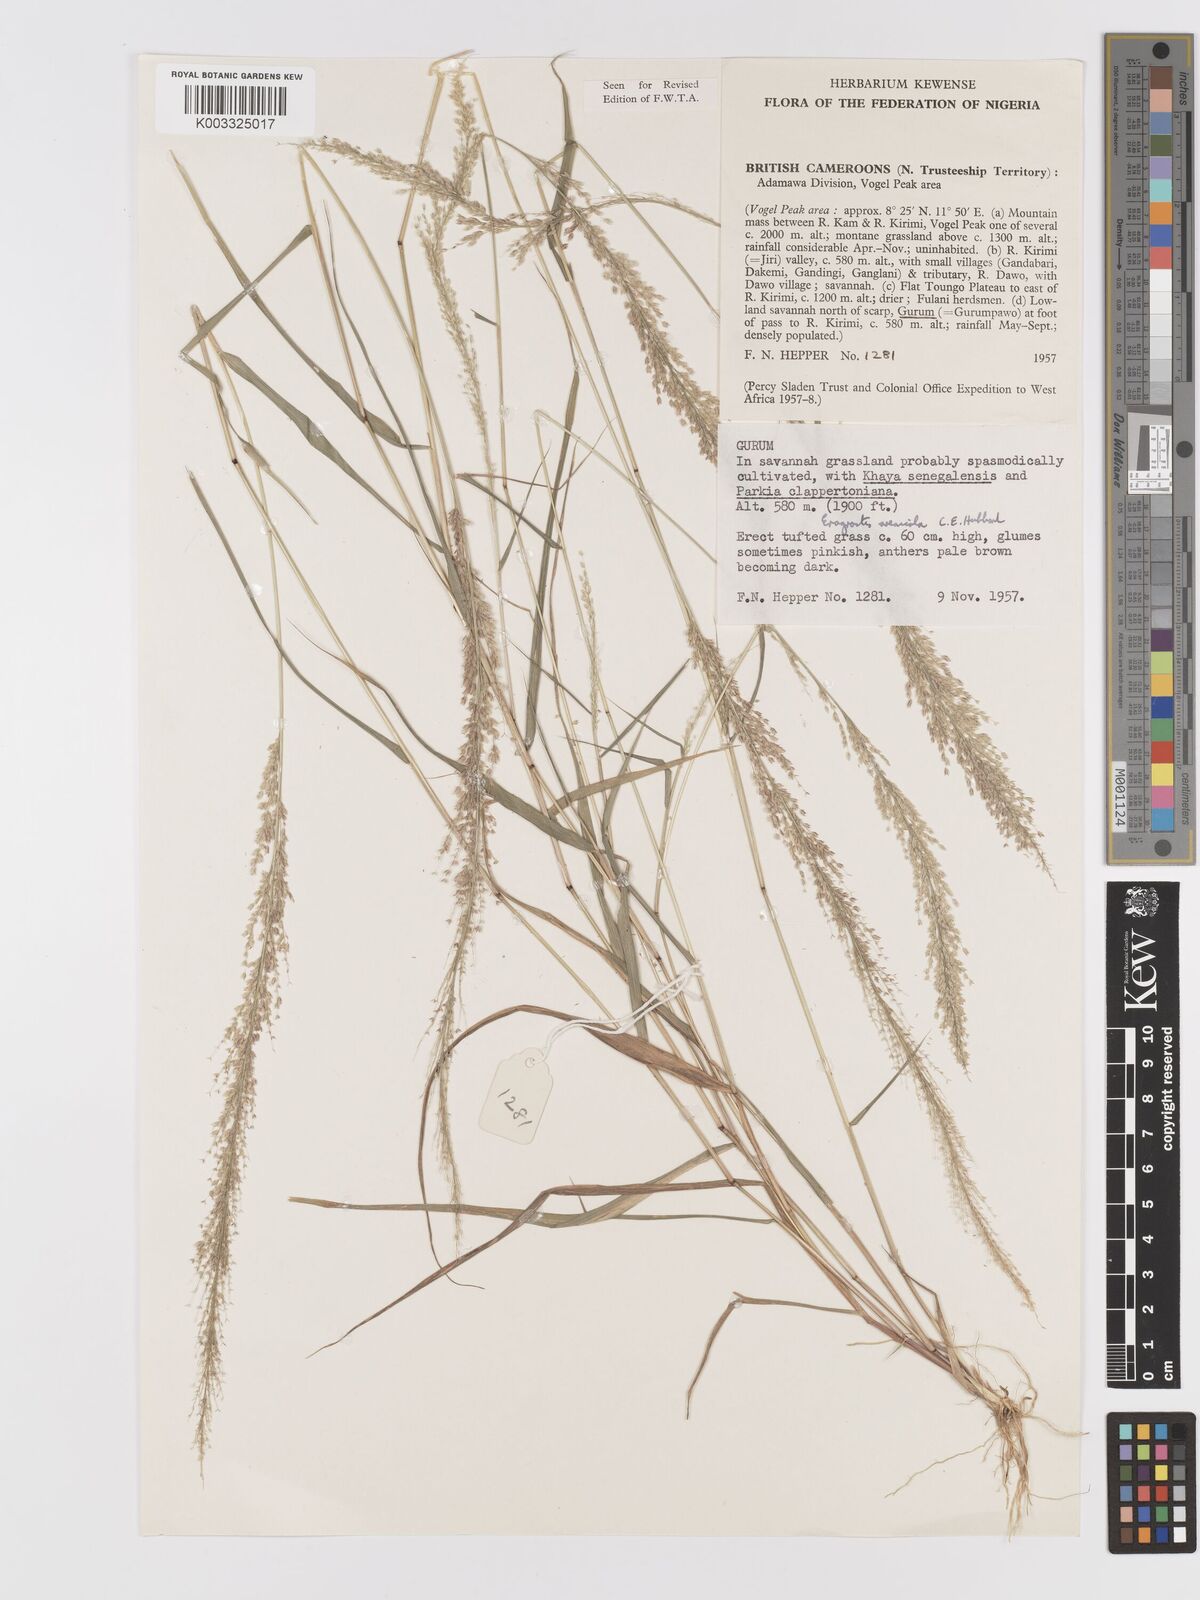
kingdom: Plantae
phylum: Tracheophyta
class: Liliopsida
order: Poales
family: Poaceae
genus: Eragrostis
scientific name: Eragrostis arenicola
